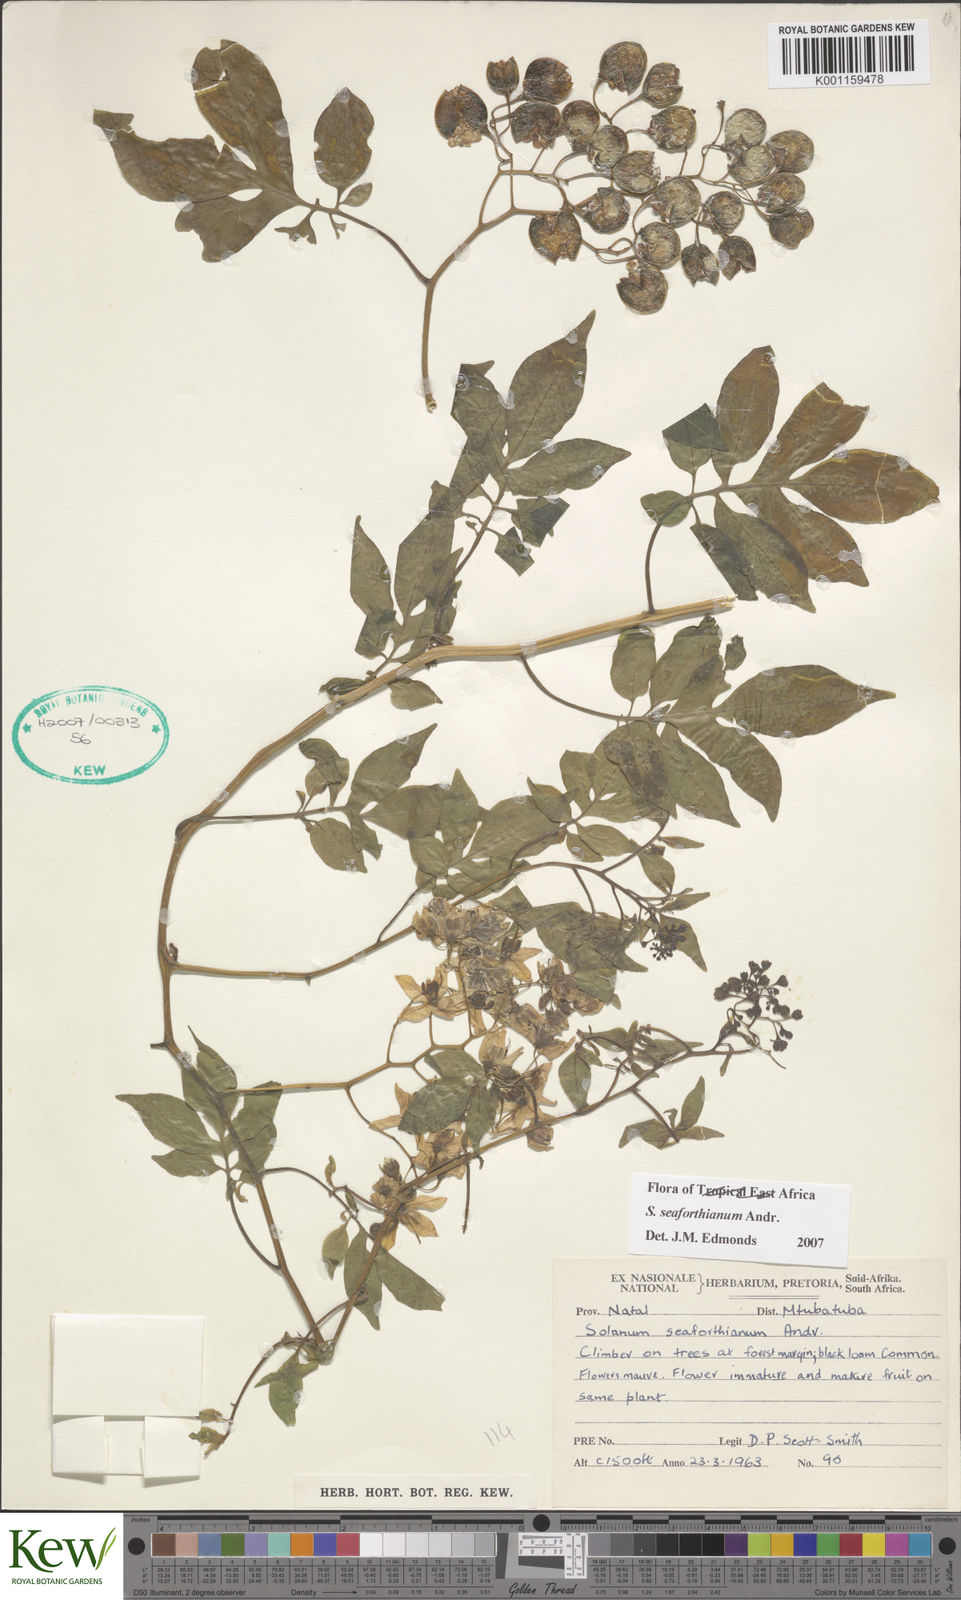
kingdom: Plantae
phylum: Tracheophyta
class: Magnoliopsida
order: Solanales
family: Solanaceae
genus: Solanum
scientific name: Solanum seaforthianum
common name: Brazilian nightshade
